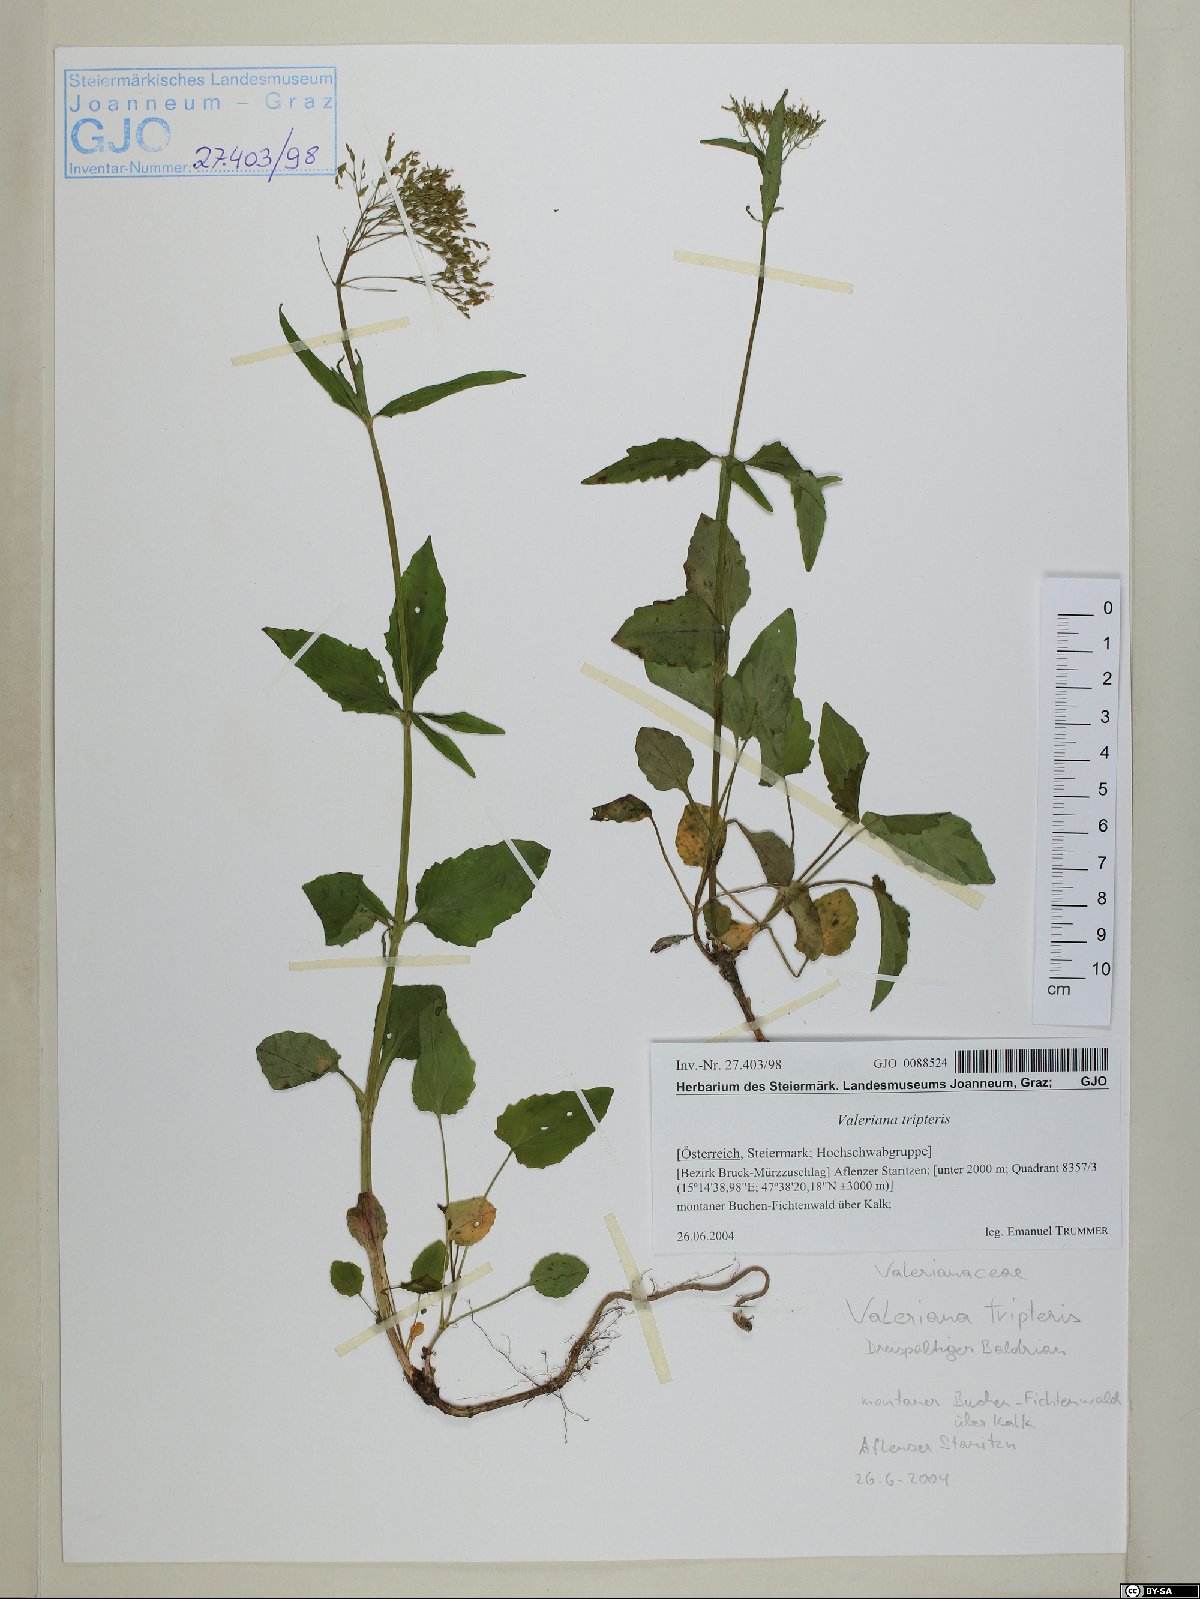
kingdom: Plantae
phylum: Tracheophyta
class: Magnoliopsida
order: Dipsacales
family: Caprifoliaceae
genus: Valeriana
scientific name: Valeriana tripteris
